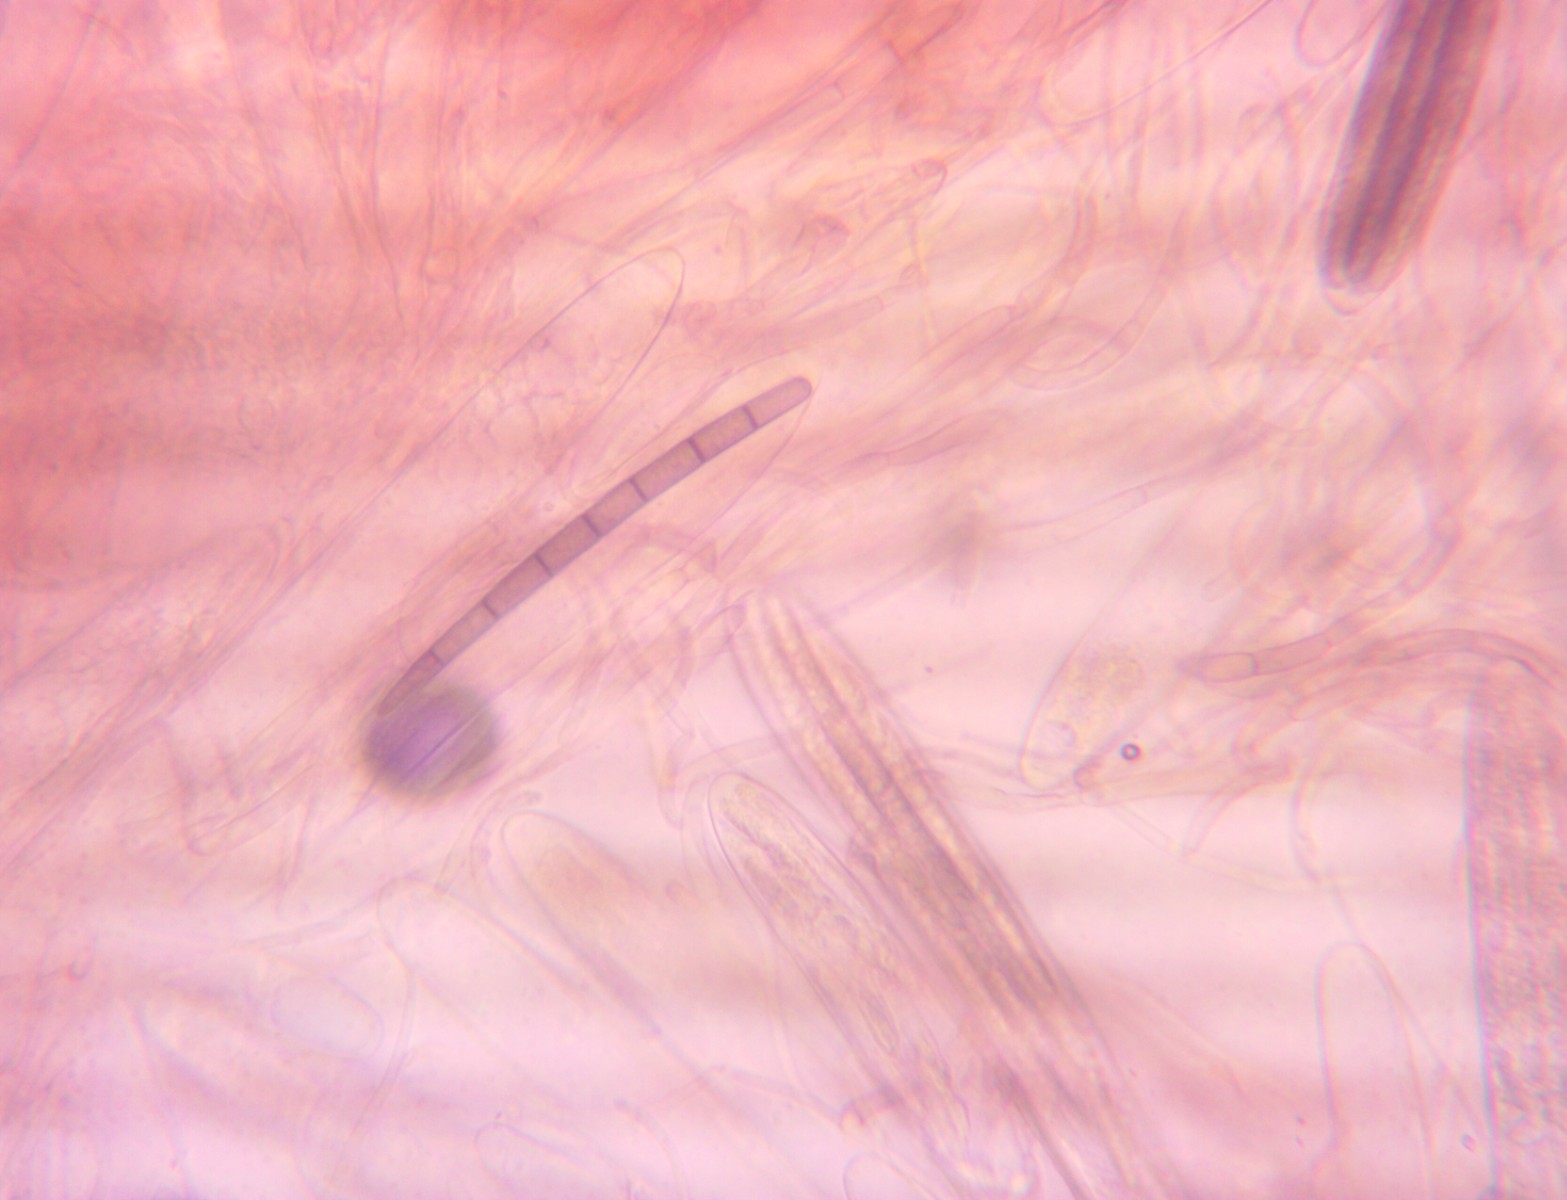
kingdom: Fungi
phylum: Ascomycota
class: Geoglossomycetes
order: Geoglossales
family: Geoglossaceae
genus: Geoglossum
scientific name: Geoglossum umbratile
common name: slank jordtunge
